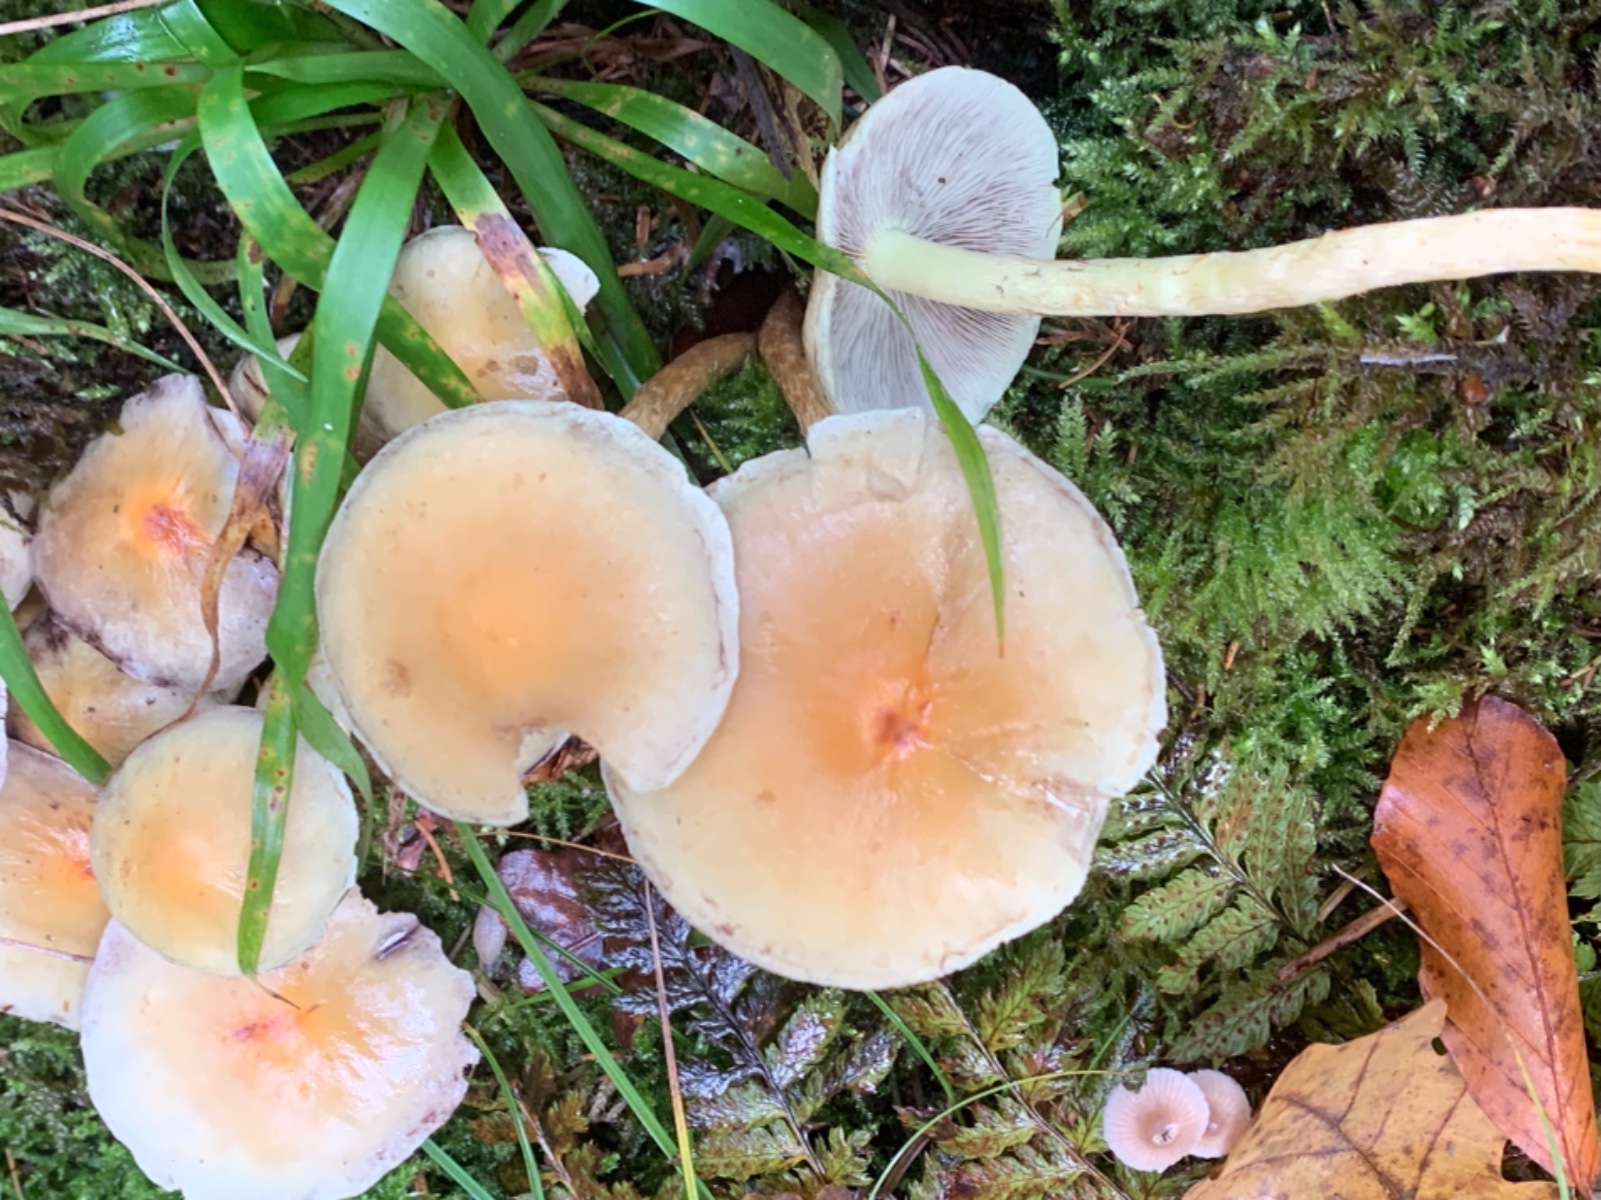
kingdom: Fungi
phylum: Basidiomycota
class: Agaricomycetes
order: Agaricales
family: Strophariaceae
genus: Hypholoma
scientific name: Hypholoma capnoides
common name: gran-svovlhat
